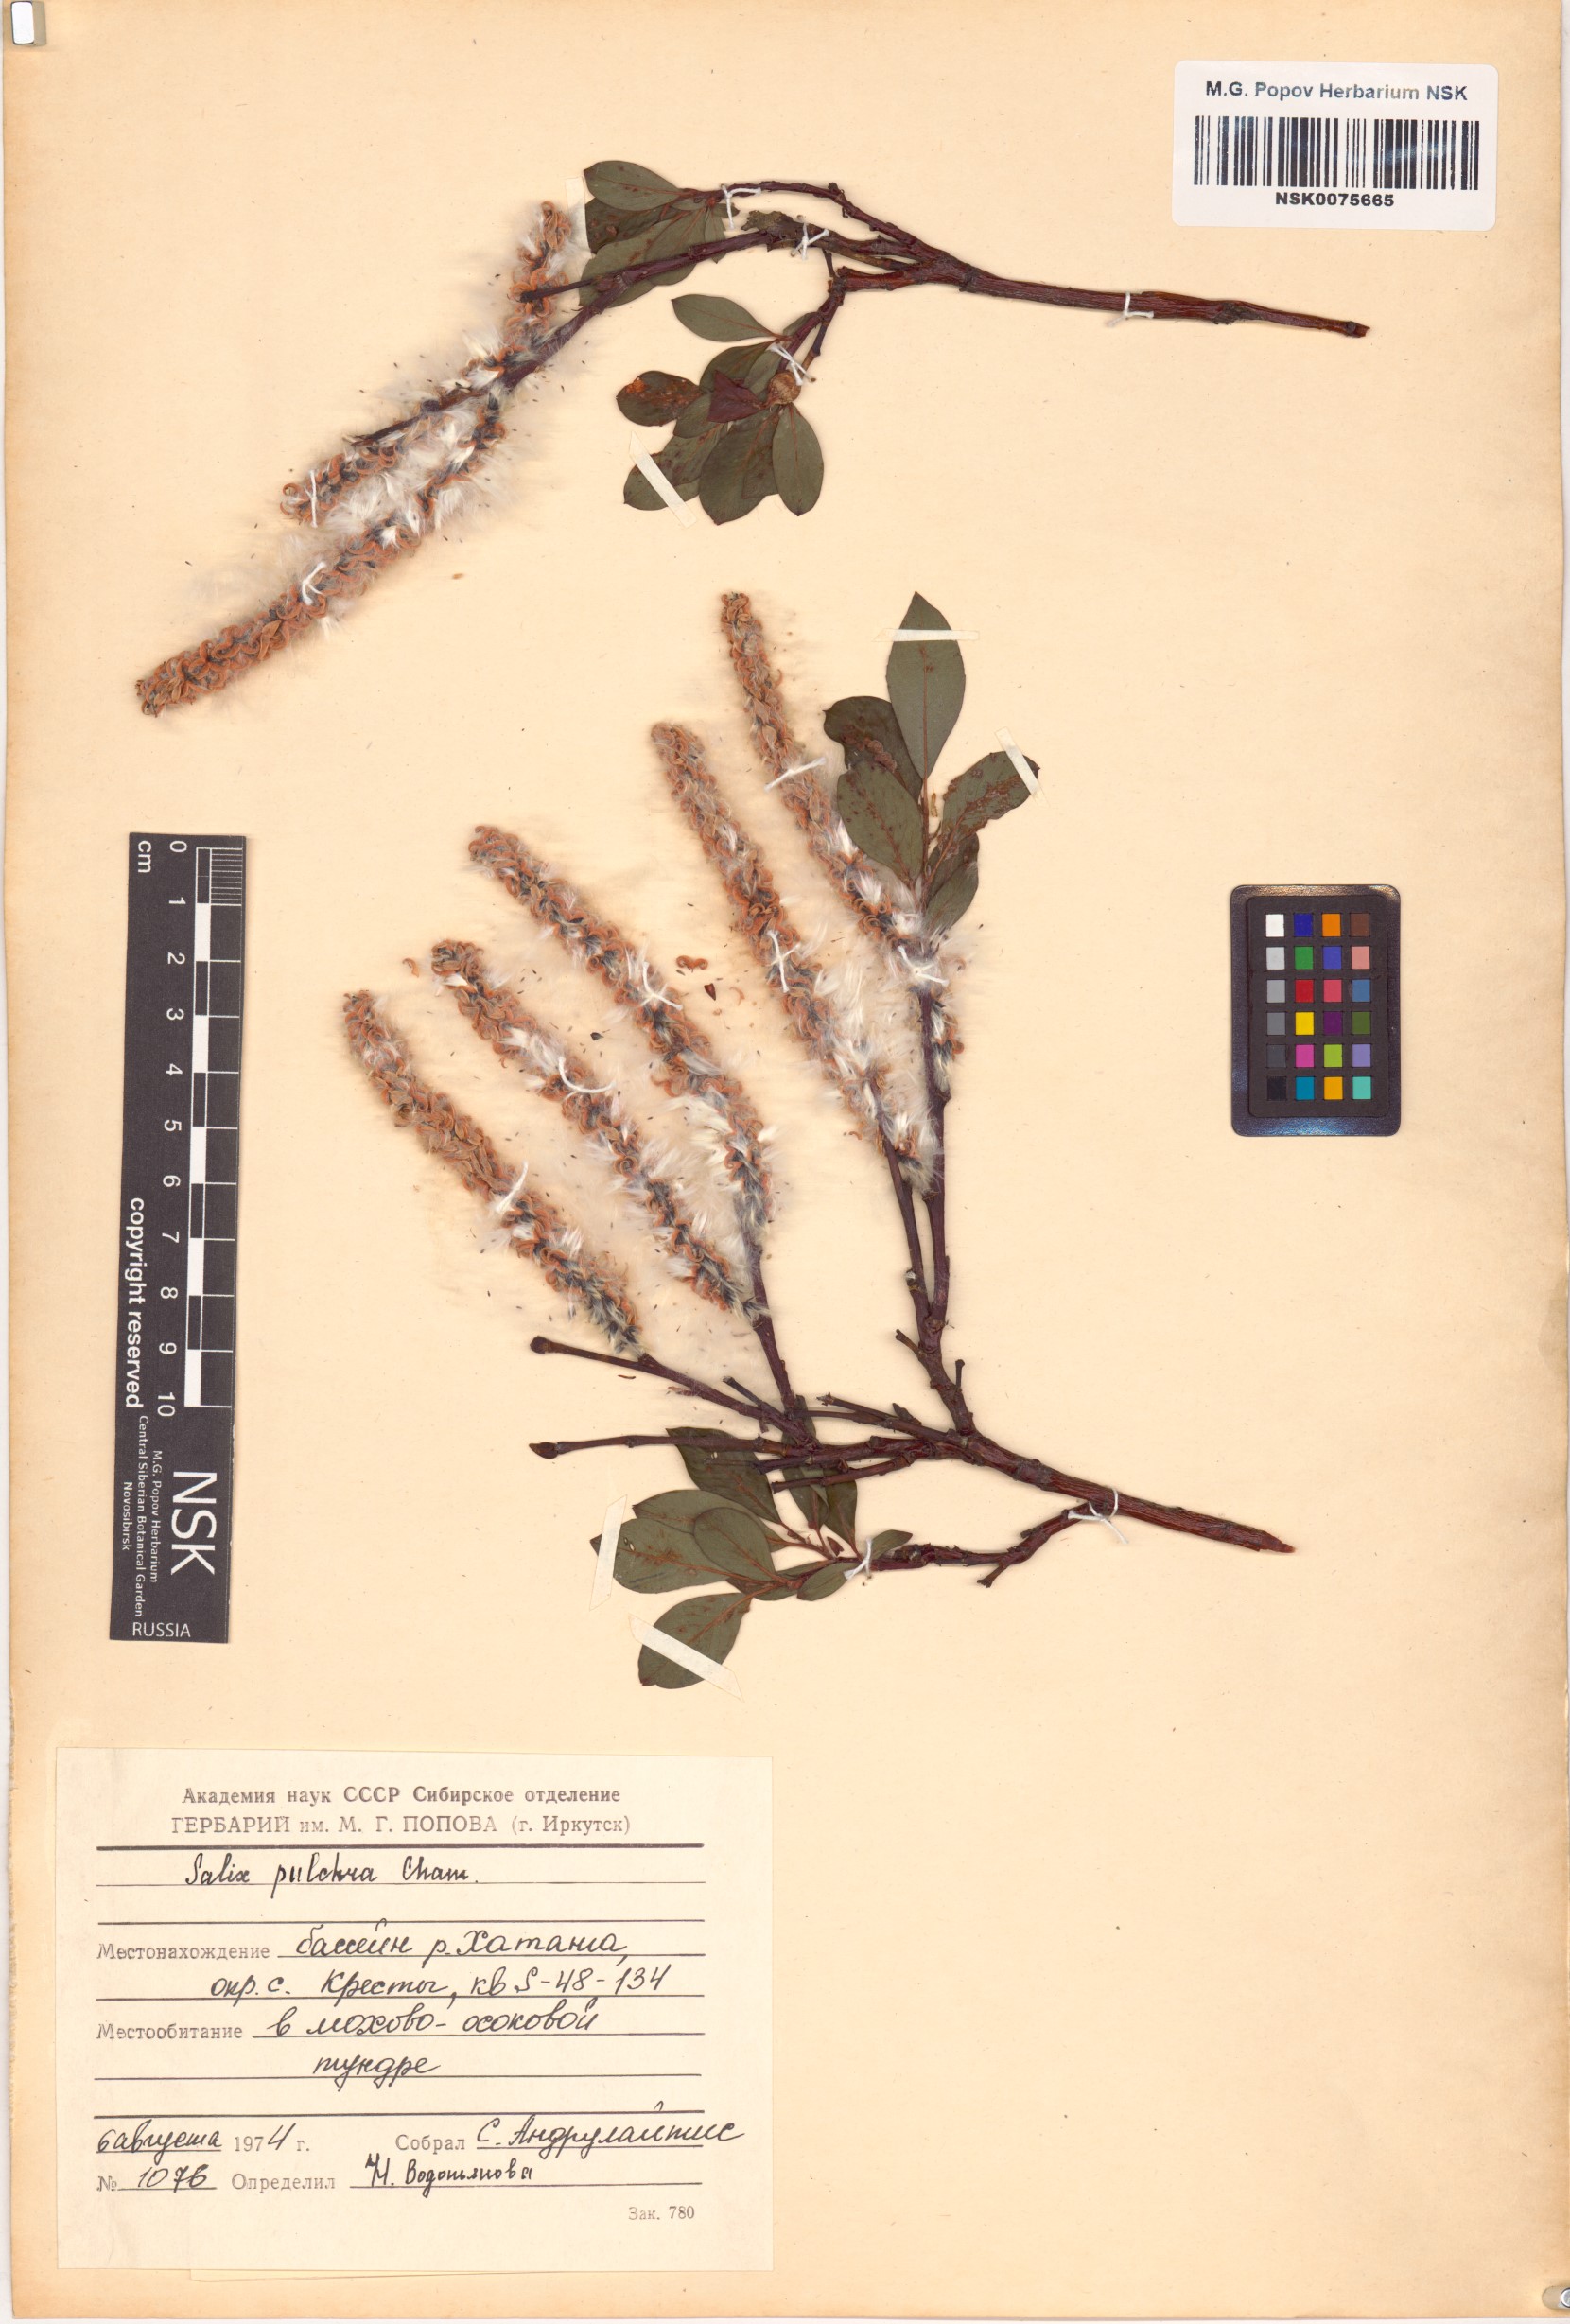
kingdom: Plantae
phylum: Tracheophyta
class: Magnoliopsida
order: Malpighiales
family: Salicaceae
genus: Salix
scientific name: Salix pulchra
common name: Diamond-leaved willow
